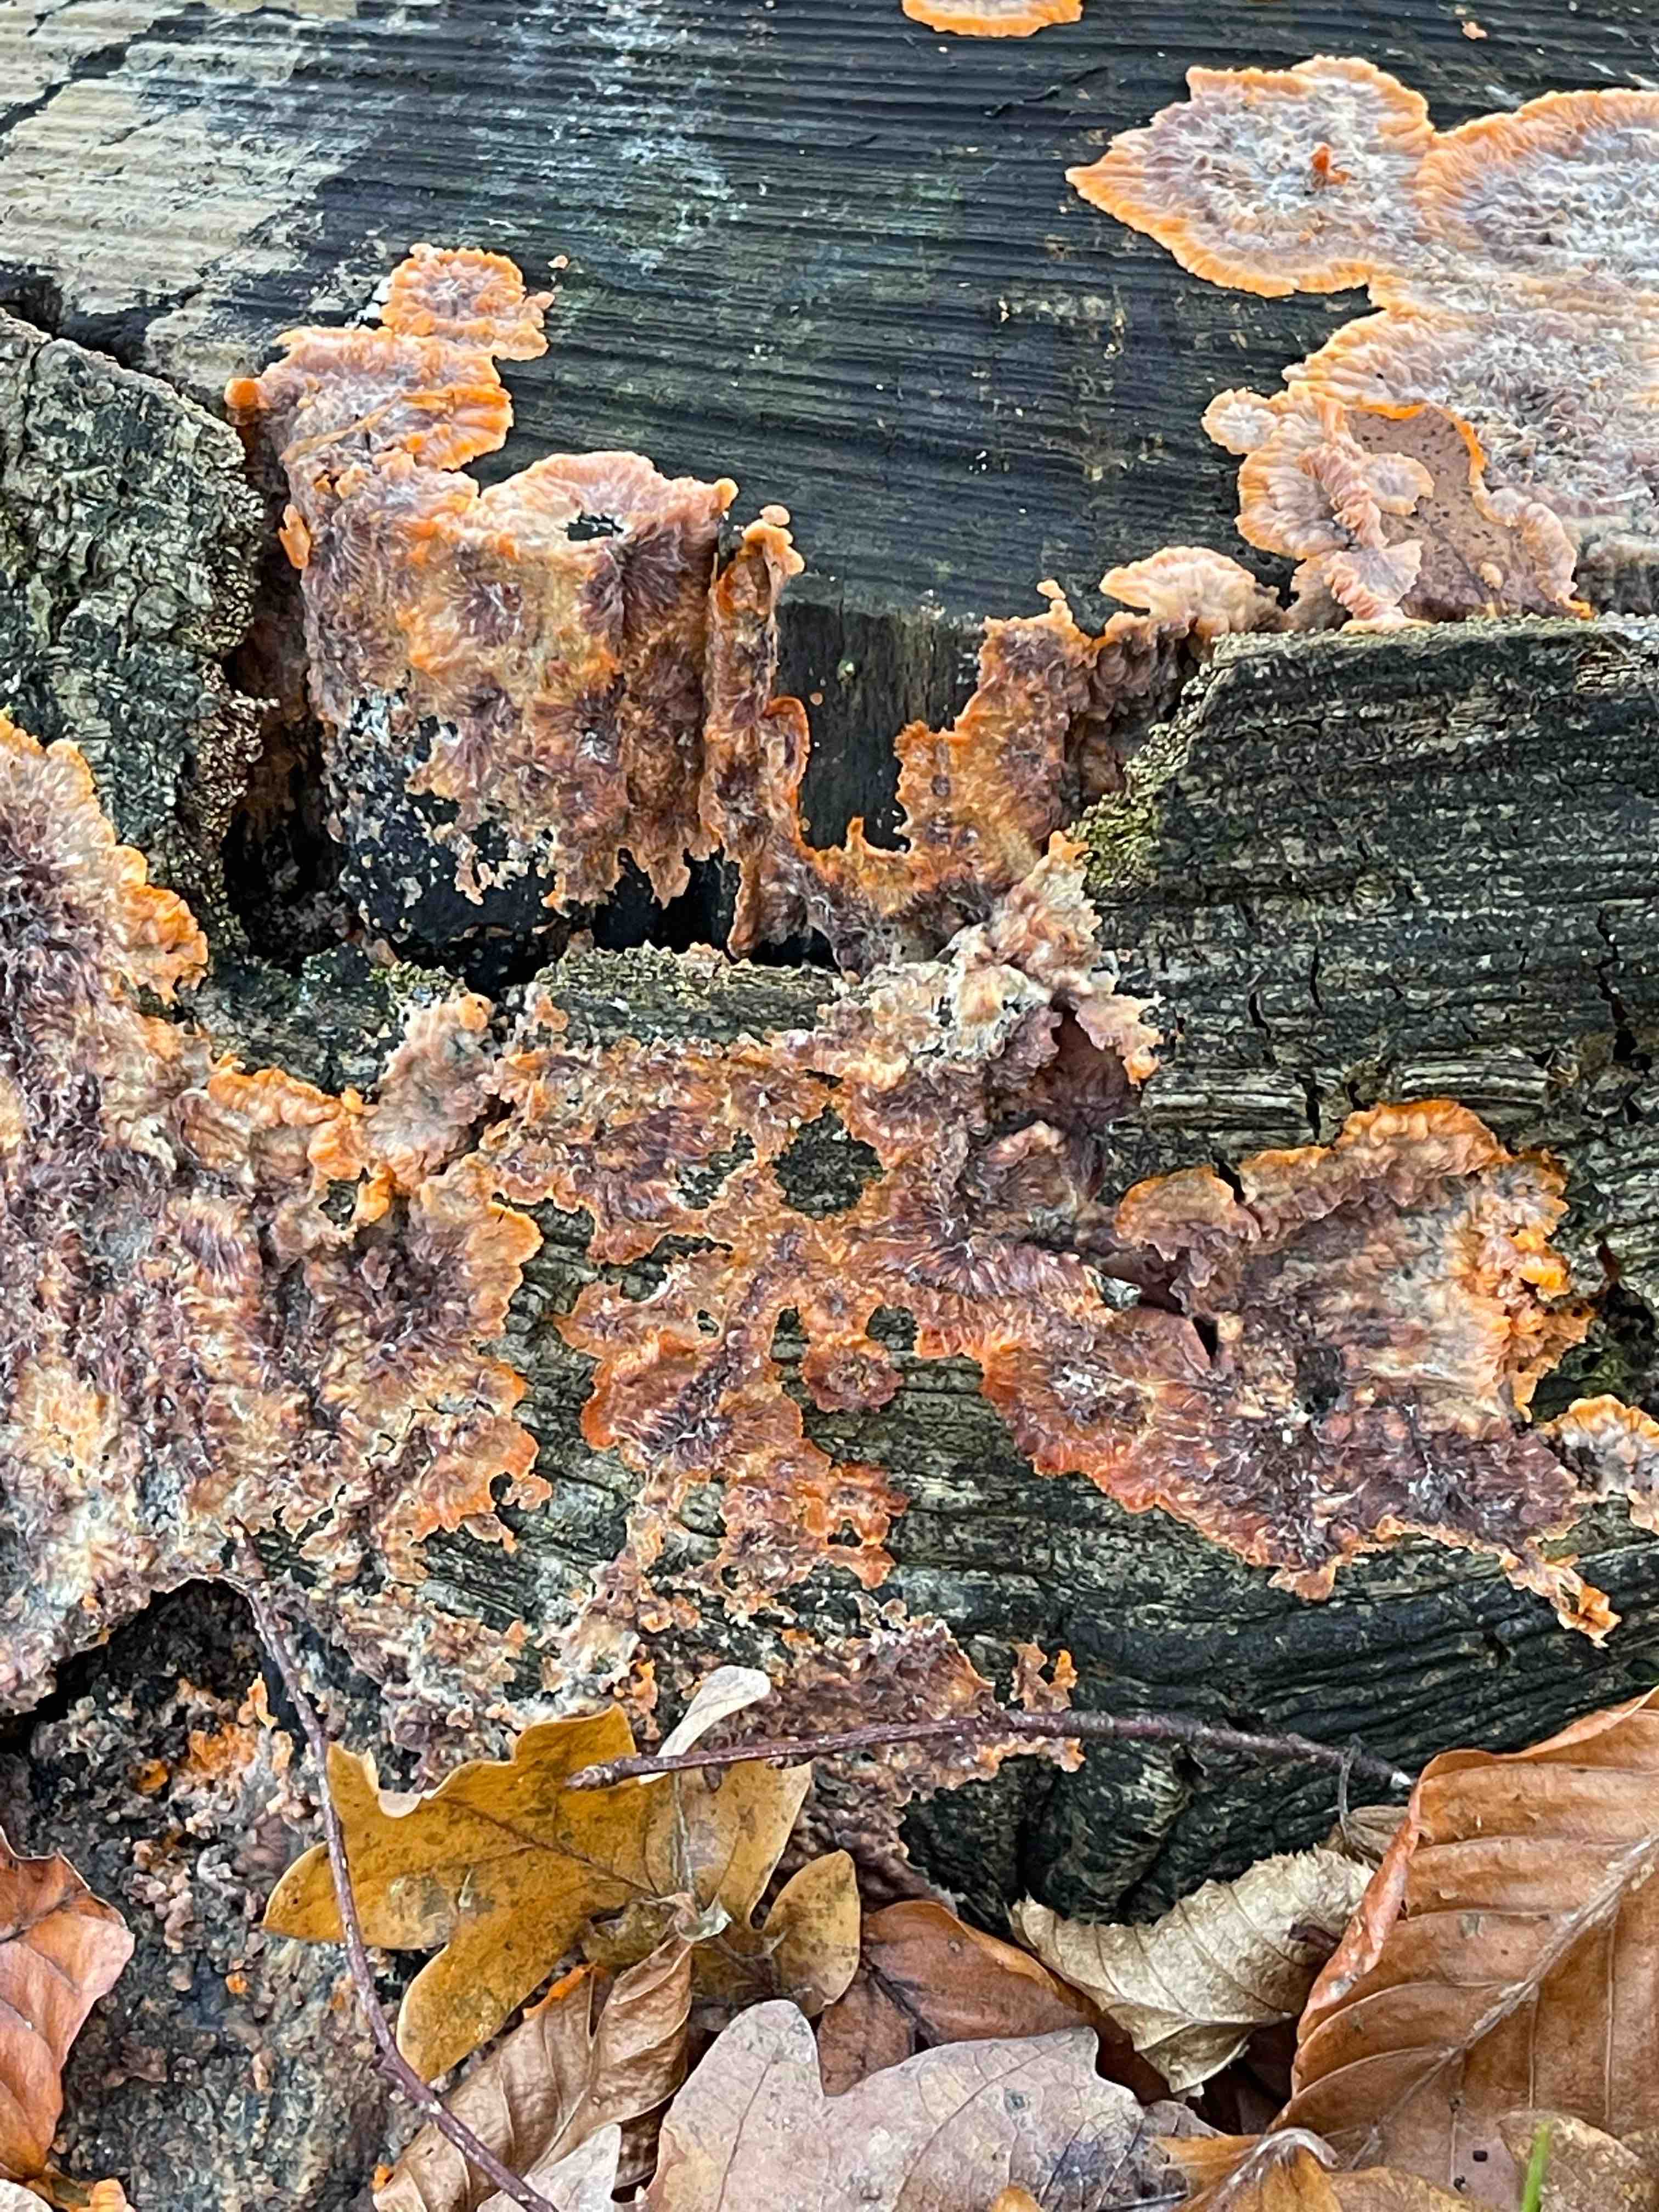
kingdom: Fungi
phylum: Basidiomycota
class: Agaricomycetes
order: Polyporales
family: Meruliaceae
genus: Phlebia
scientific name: Phlebia radiata
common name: stråle-åresvamp
